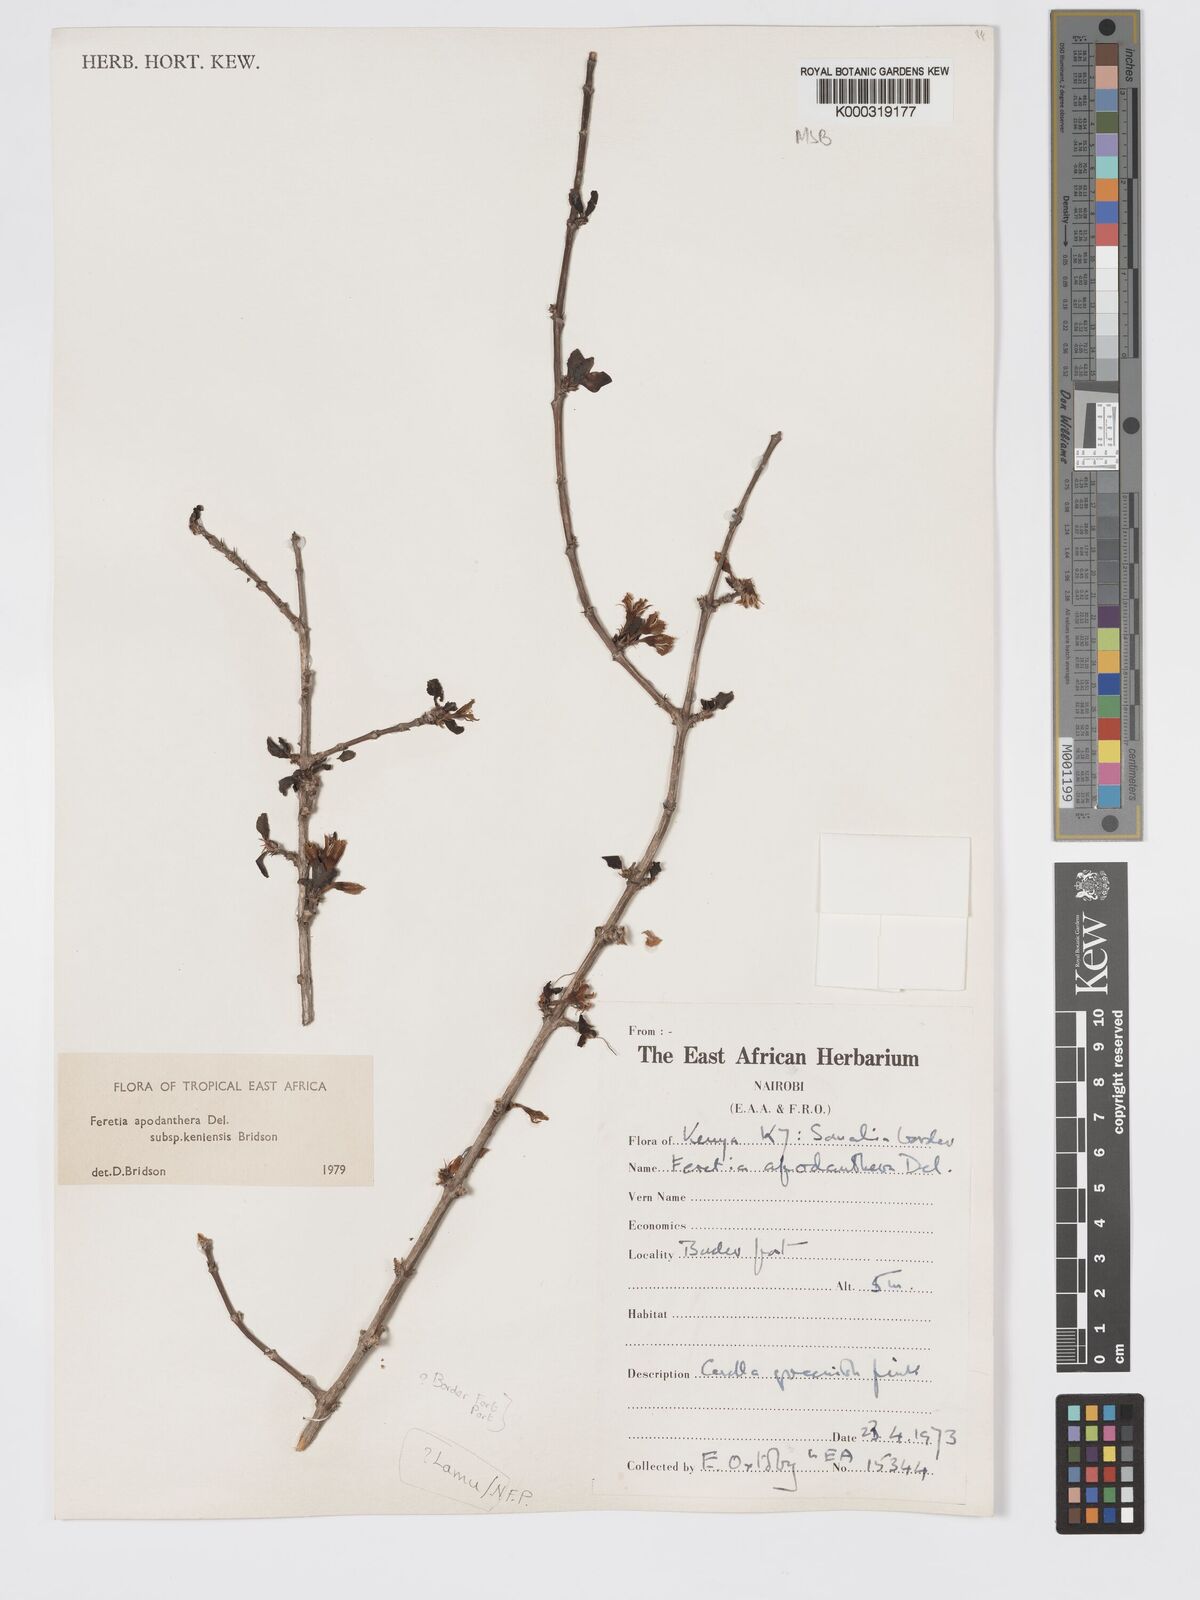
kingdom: Plantae
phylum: Tracheophyta
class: Magnoliopsida
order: Gentianales
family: Rubiaceae
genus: Feretia
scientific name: Feretia apodanthera
